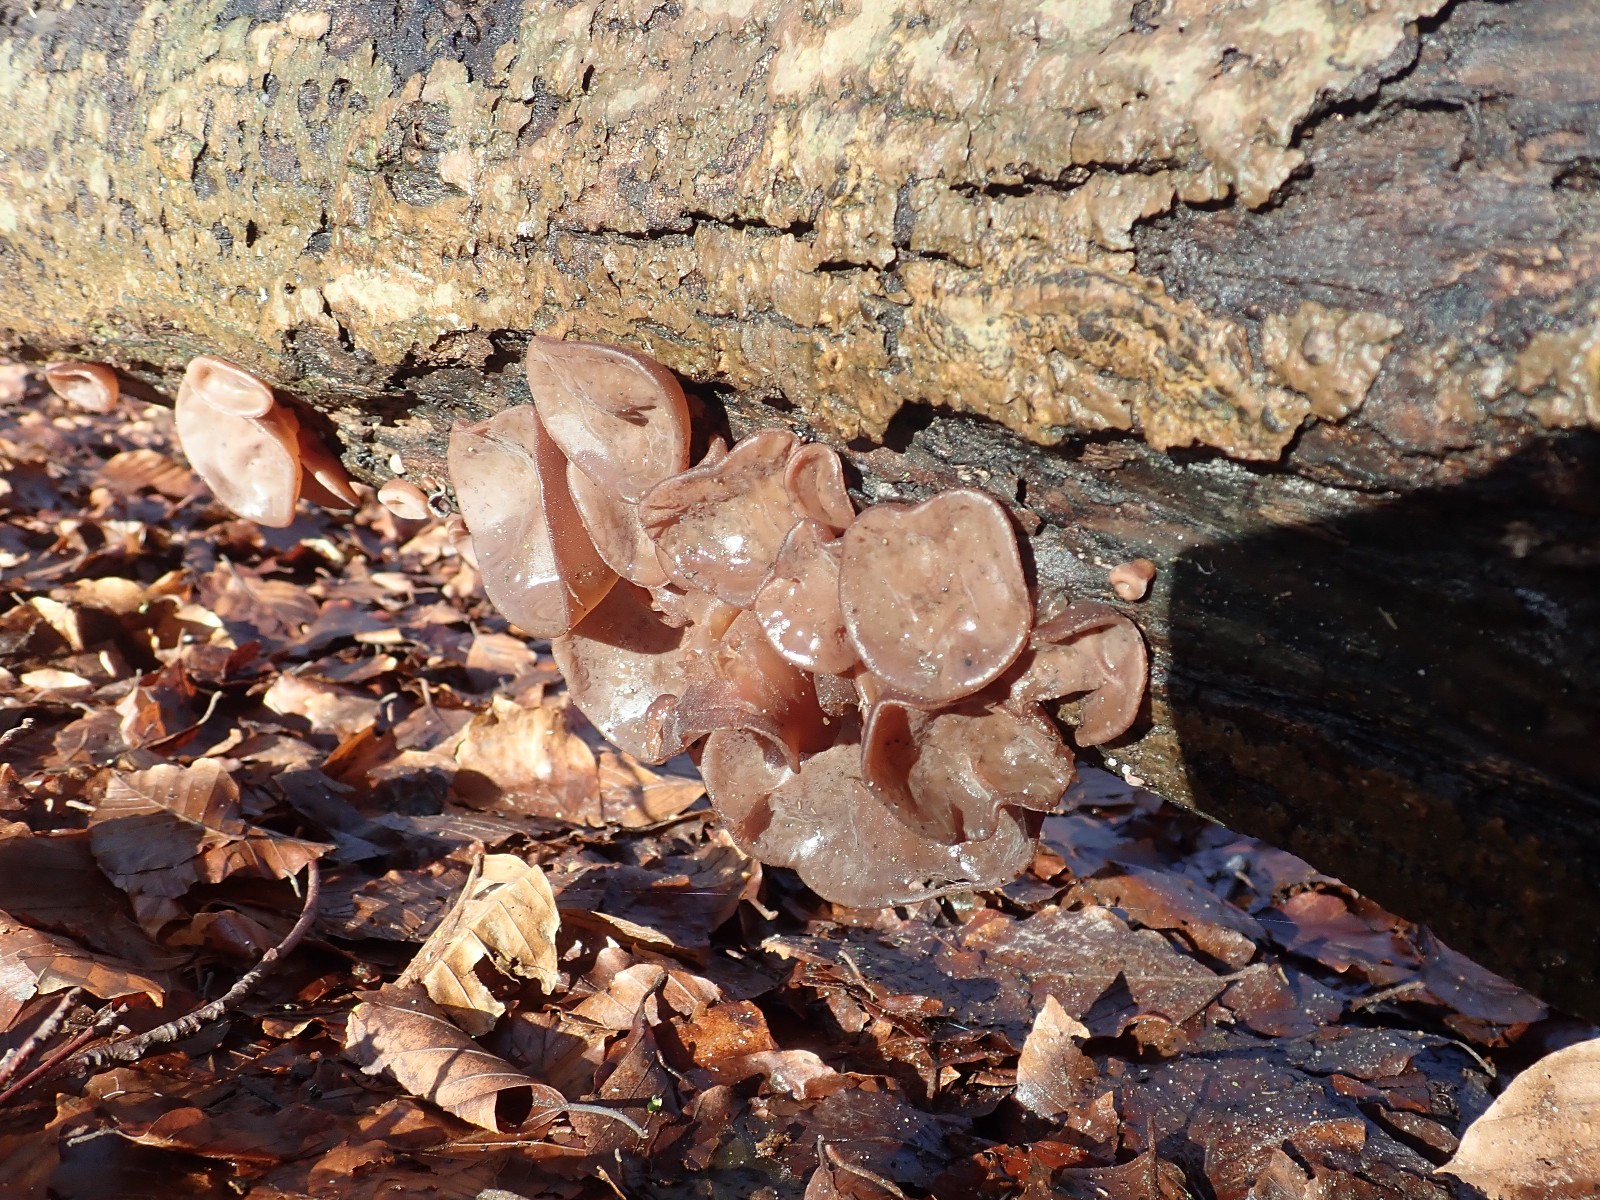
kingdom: Fungi
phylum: Basidiomycota
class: Agaricomycetes
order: Auriculariales
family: Auriculariaceae
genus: Auricularia
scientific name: Auricularia auricula-judae
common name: almindelig judasøre
